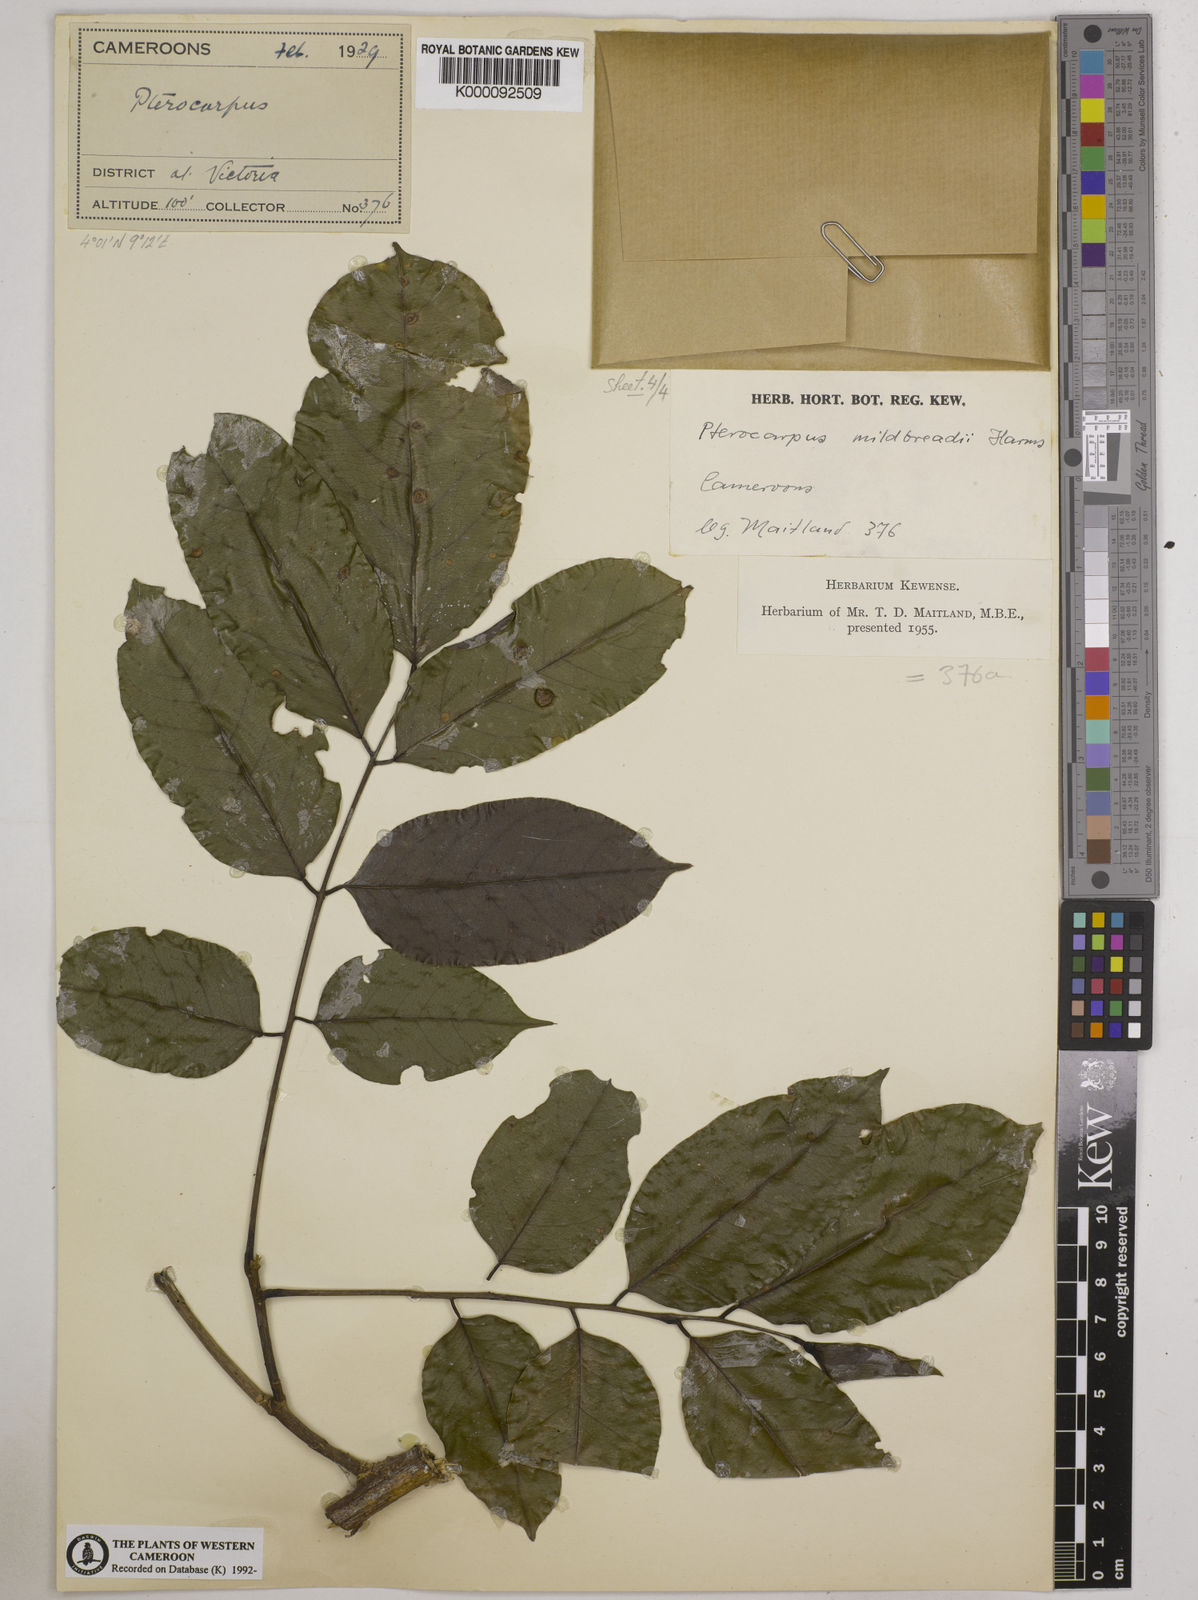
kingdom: Plantae
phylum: Tracheophyta
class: Magnoliopsida
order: Fabales
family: Fabaceae
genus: Pterocarpus
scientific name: Pterocarpus mildbraedii
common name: White padouk
